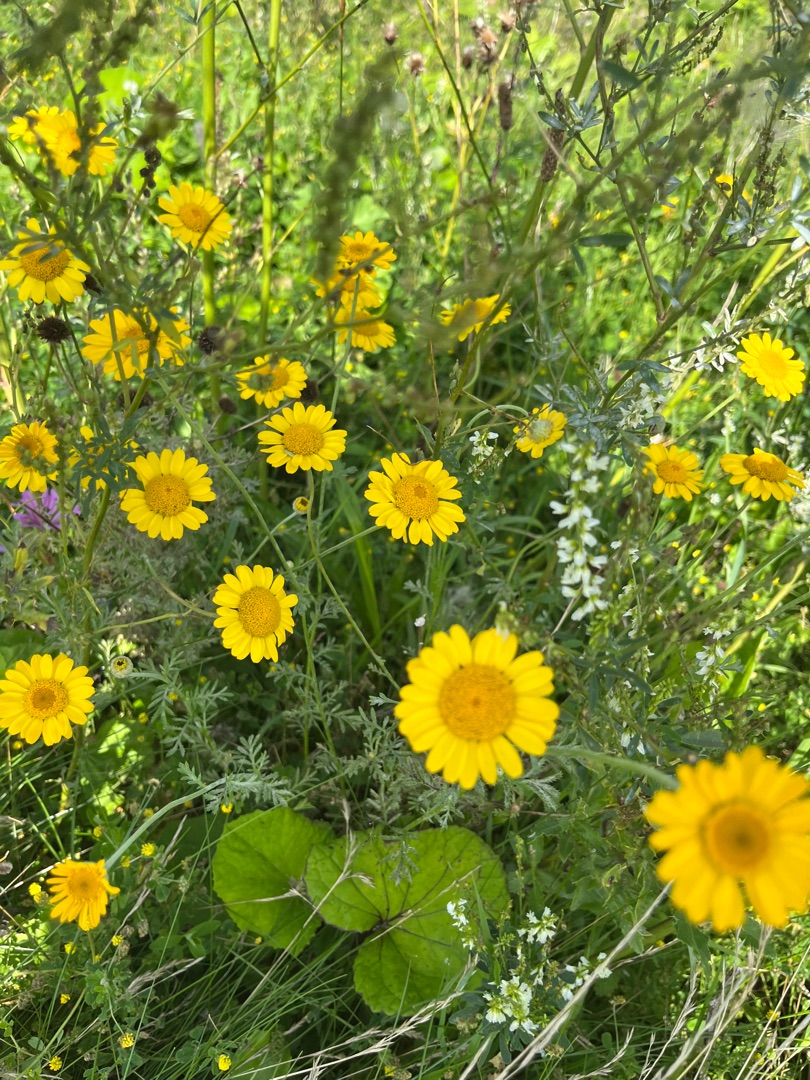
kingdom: Plantae
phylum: Tracheophyta
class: Magnoliopsida
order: Asterales
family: Asteraceae
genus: Cota
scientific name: Cota tinctoria
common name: Farve-gåseurt
